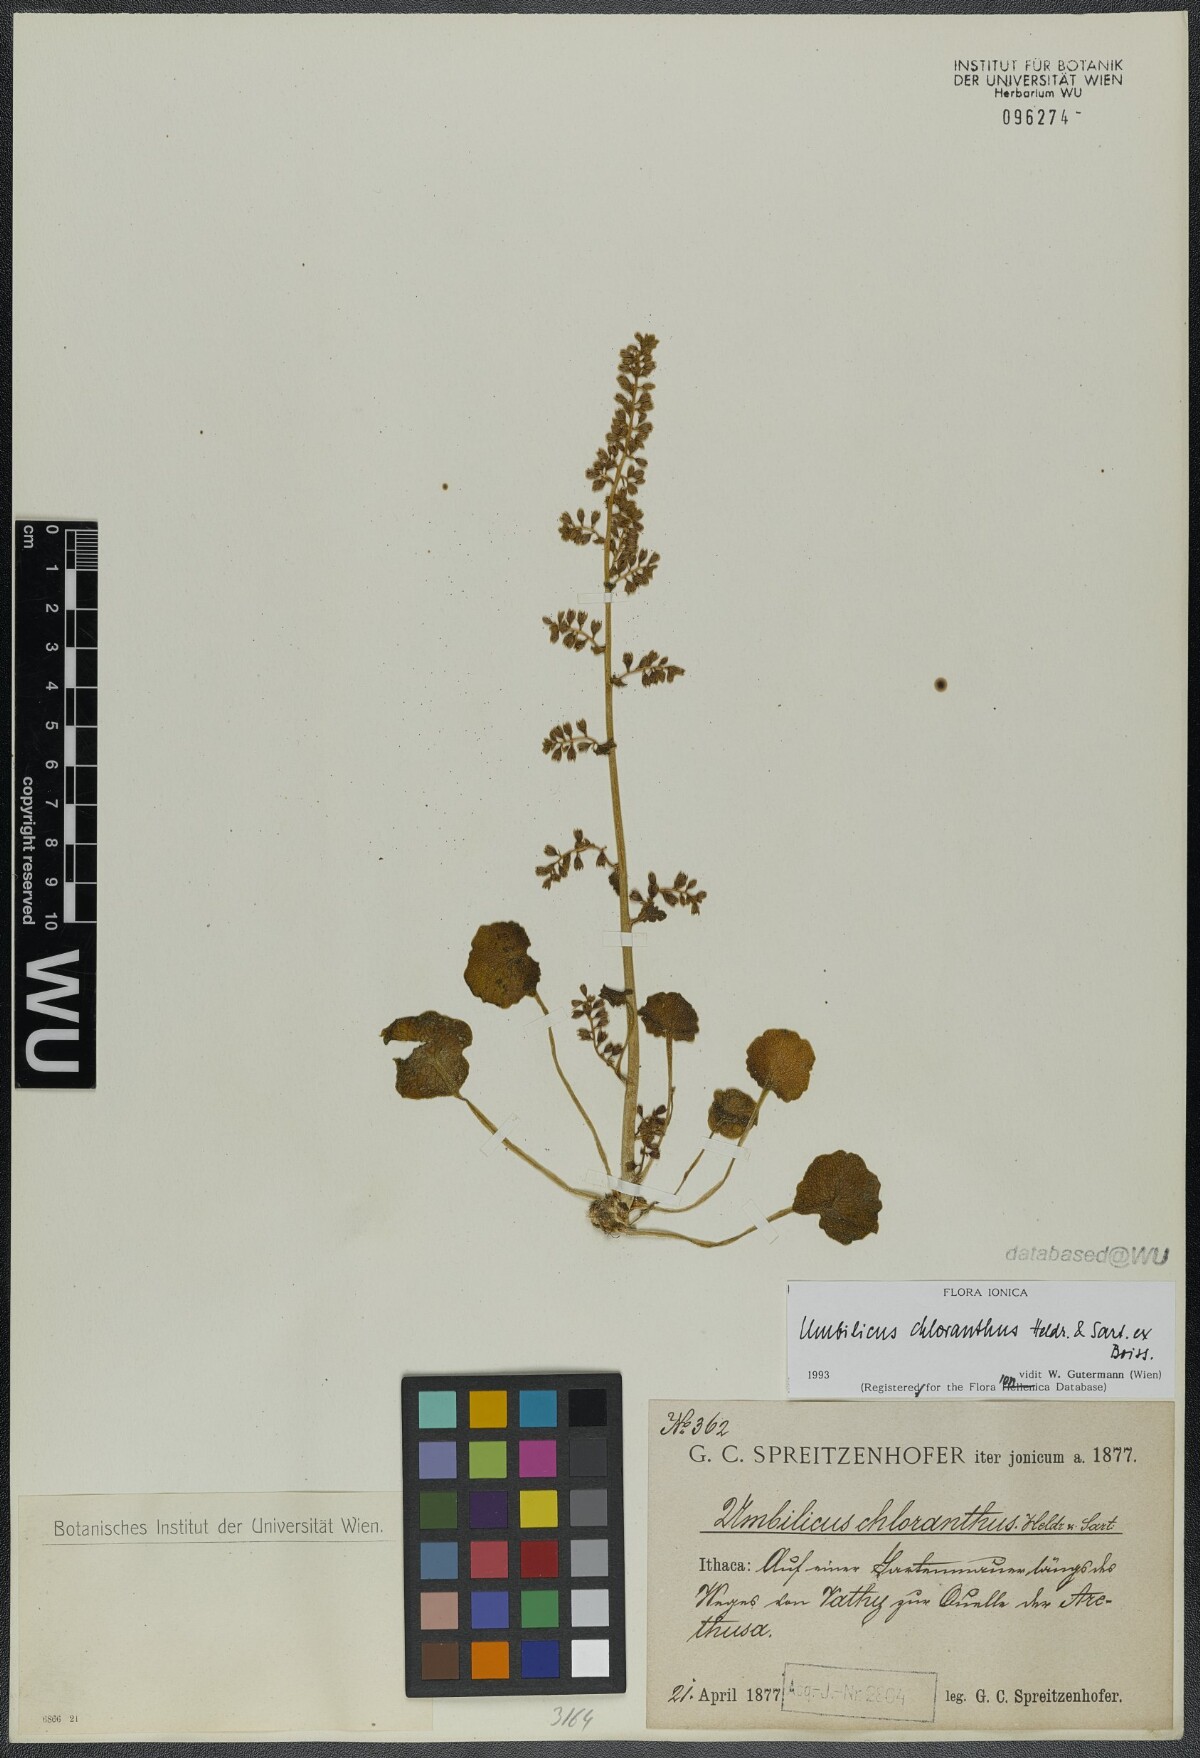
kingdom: Plantae
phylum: Tracheophyta
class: Magnoliopsida
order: Saxifragales
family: Crassulaceae
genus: Umbilicus
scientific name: Umbilicus chloranthus
